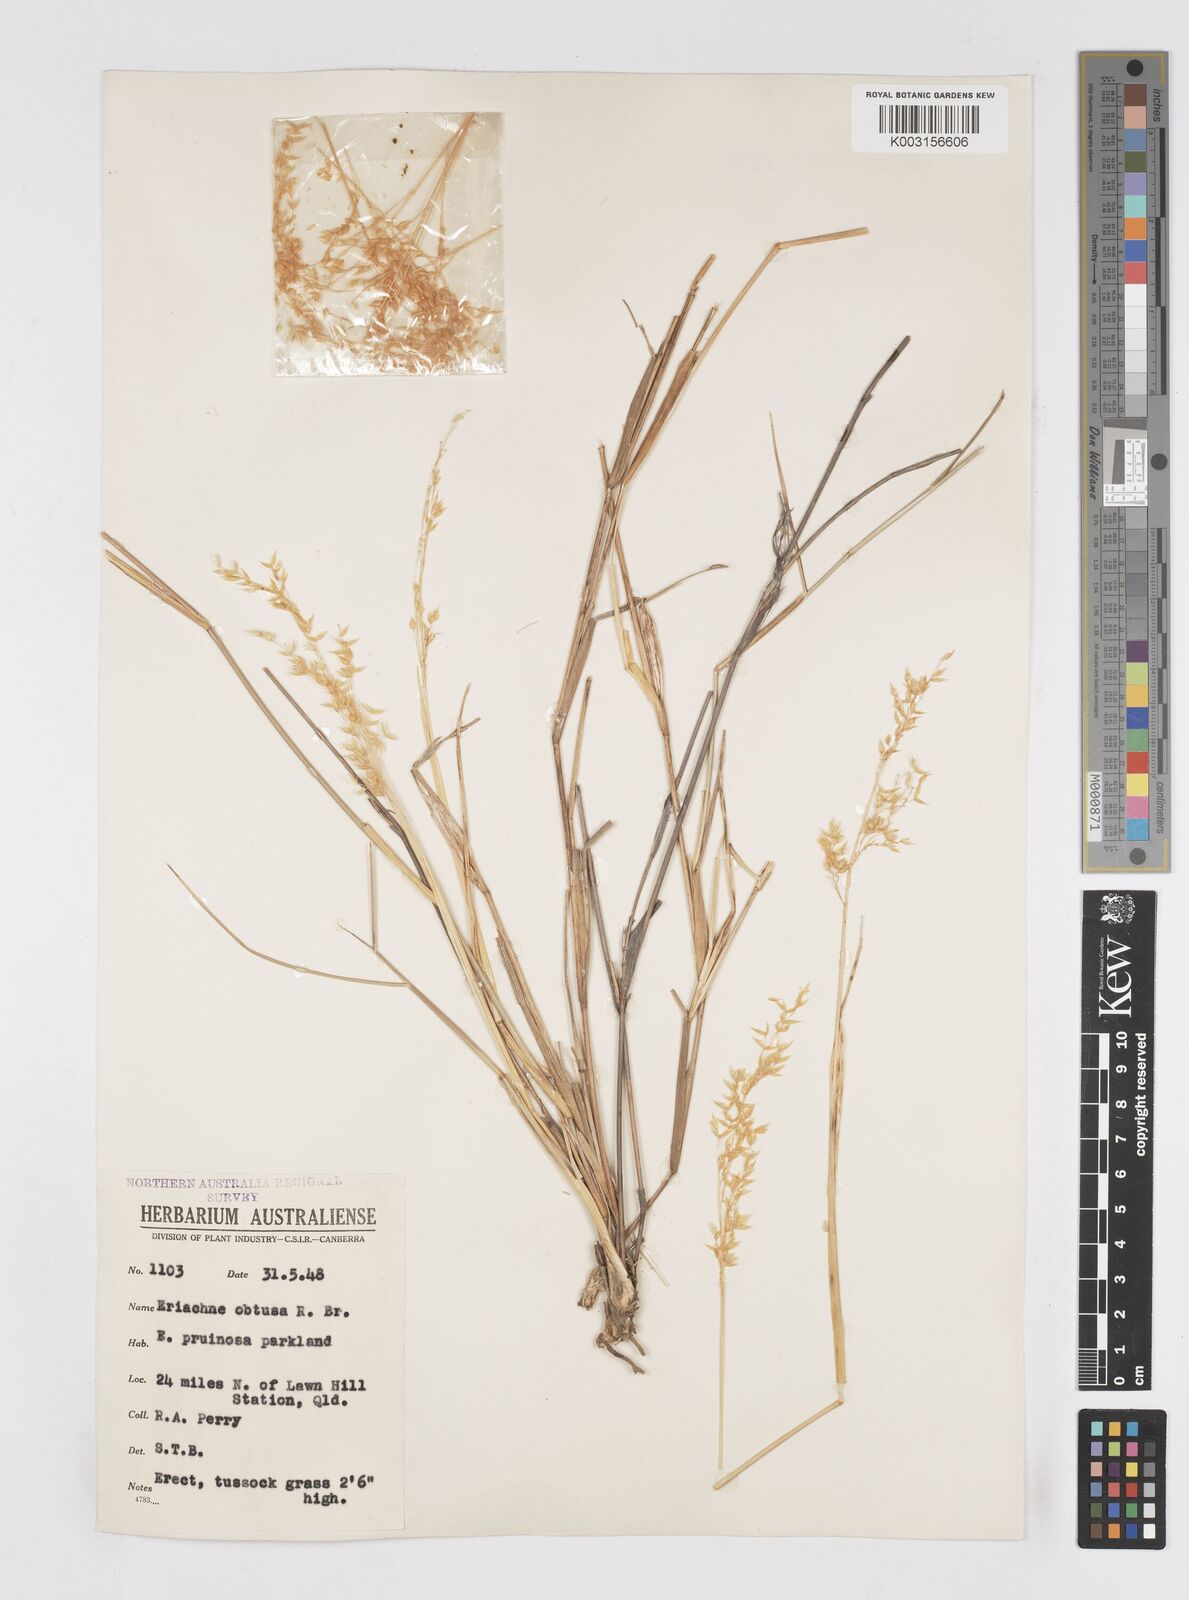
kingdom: Plantae
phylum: Tracheophyta
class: Liliopsida
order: Poales
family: Poaceae
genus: Eriachne
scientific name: Eriachne obtusa
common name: Northern wanderrie grass
